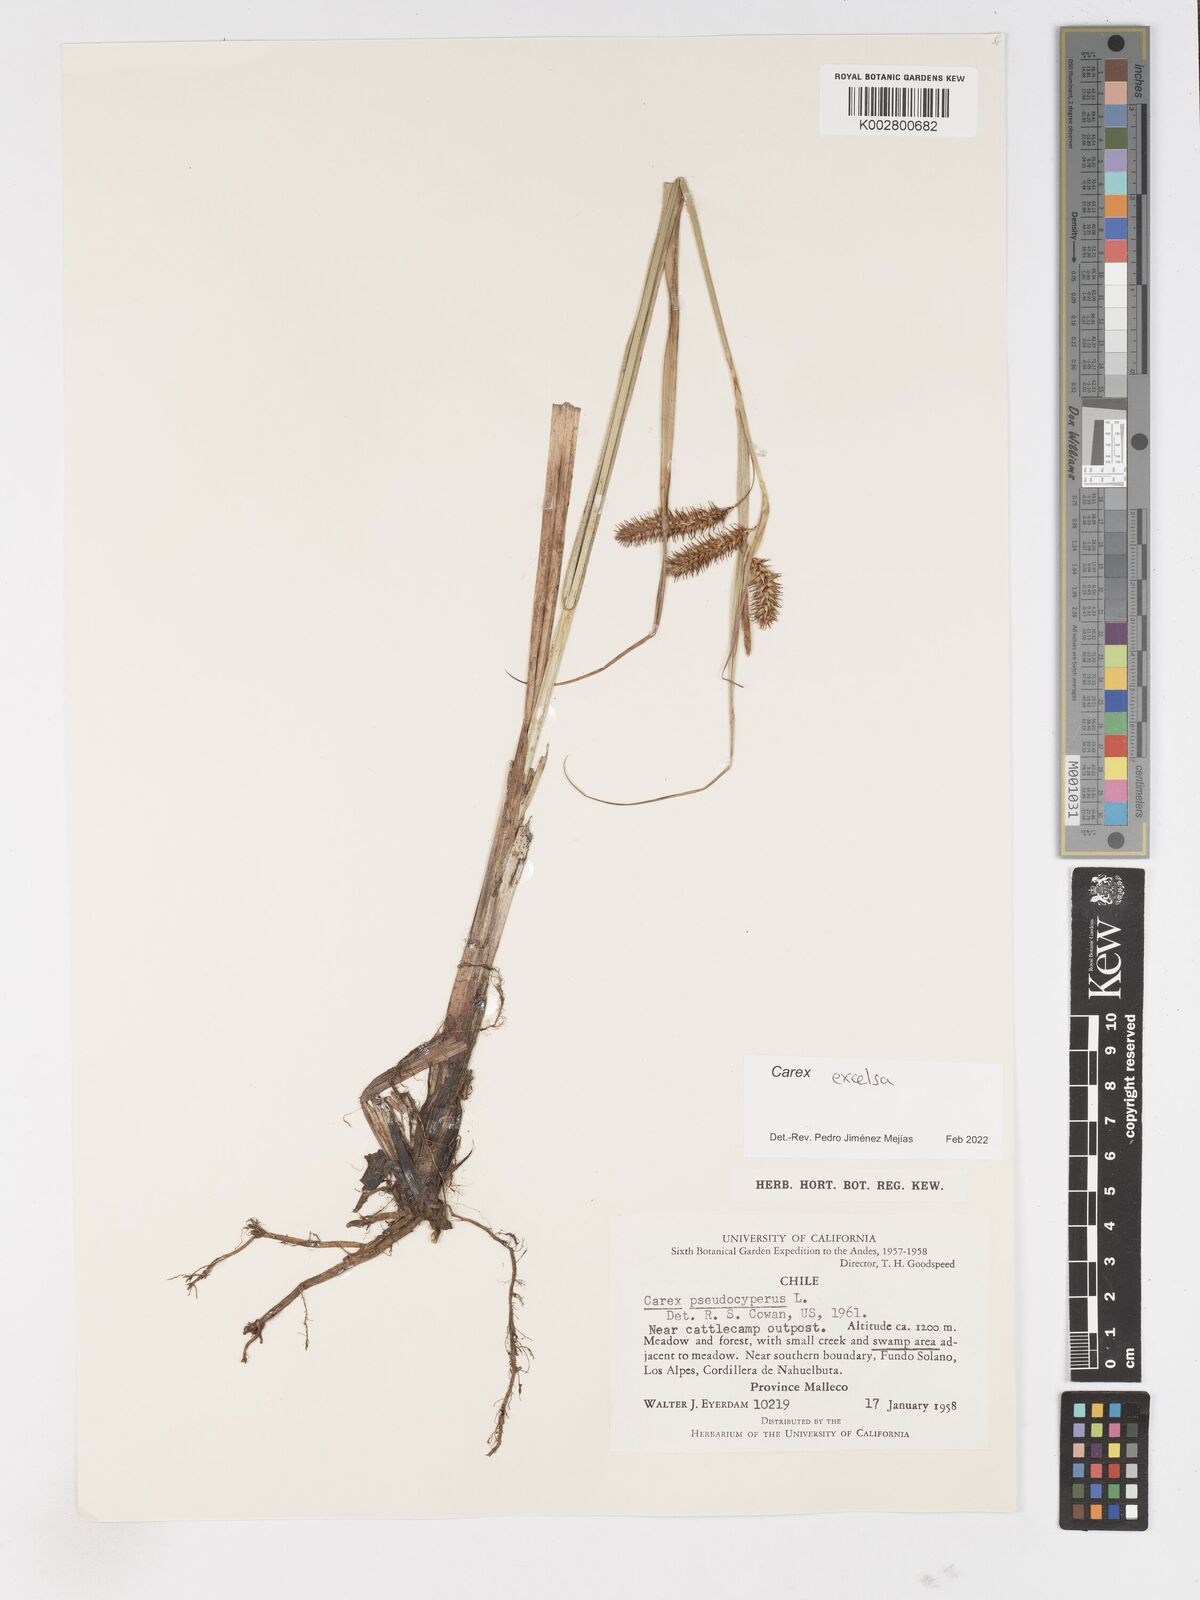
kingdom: Plantae
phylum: Tracheophyta
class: Liliopsida
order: Poales
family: Cyperaceae
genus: Carex
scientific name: Carex excelsa
